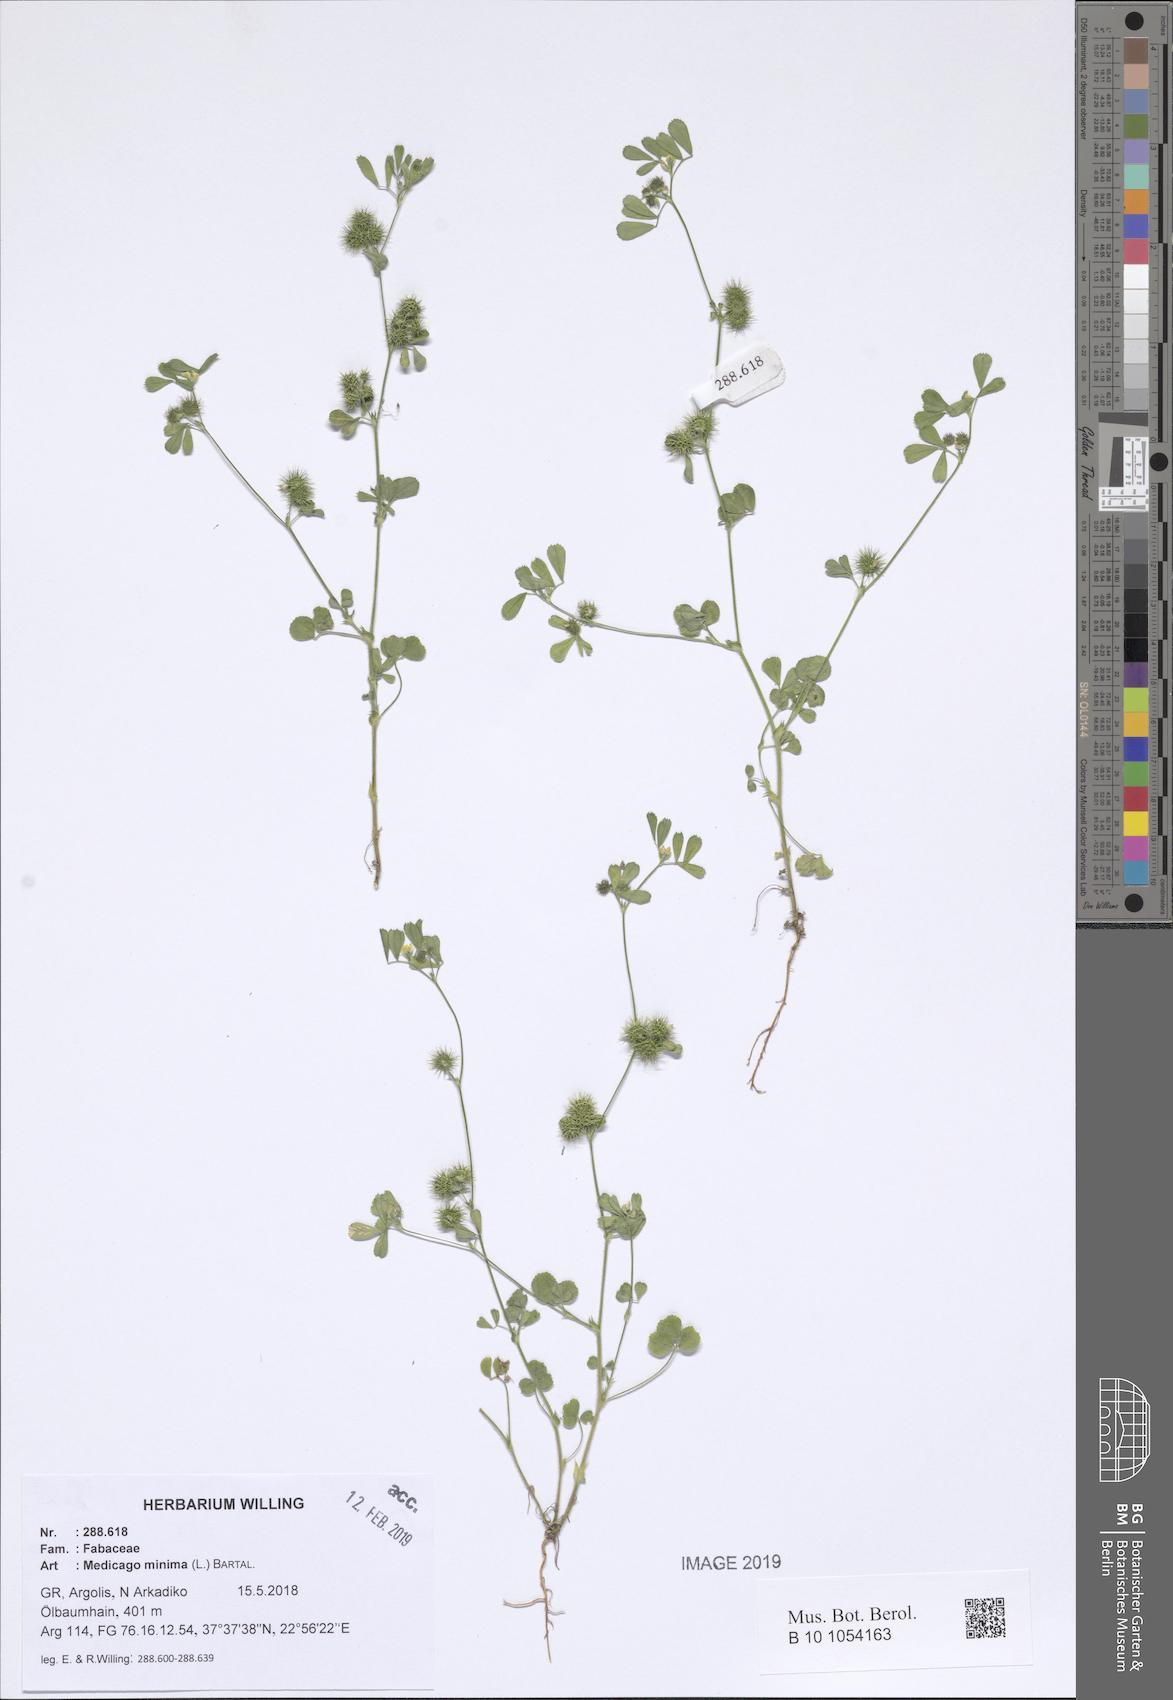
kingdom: Plantae
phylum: Tracheophyta
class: Magnoliopsida
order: Fabales
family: Fabaceae
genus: Medicago
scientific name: Medicago minima
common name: Little bur-clover
